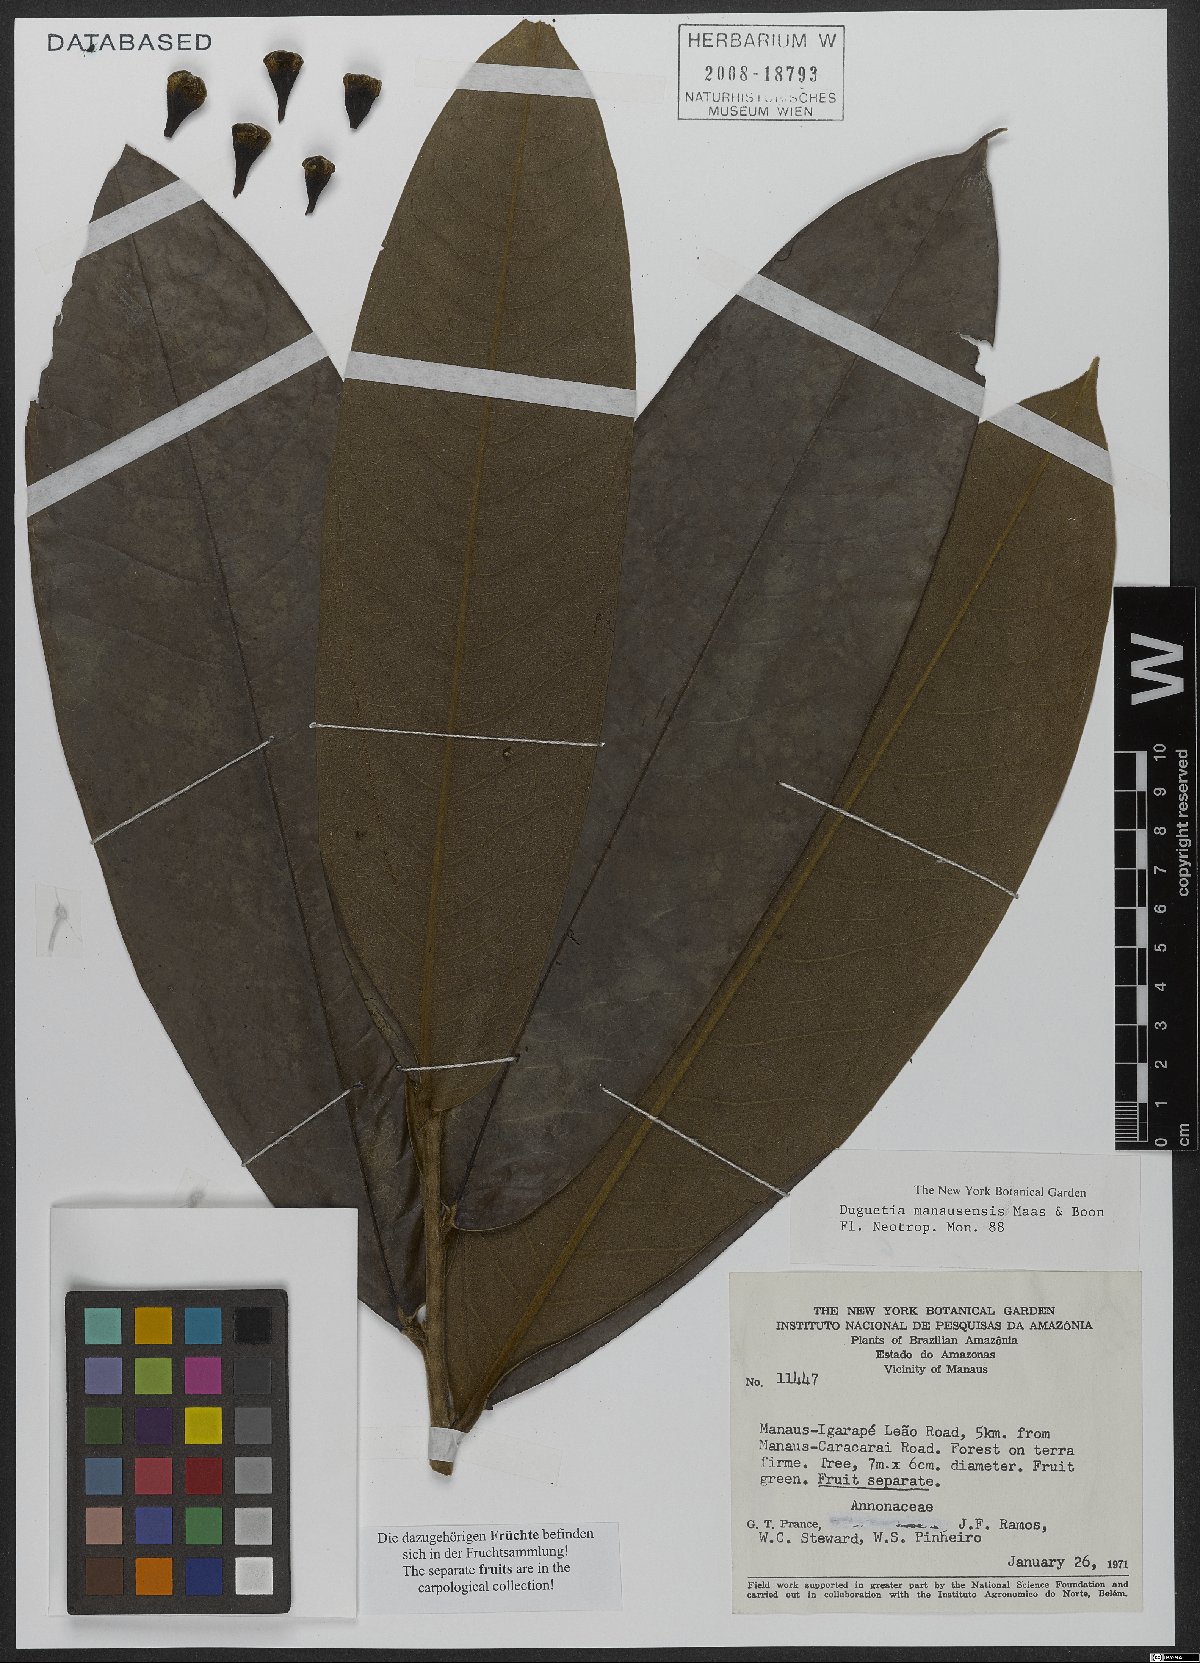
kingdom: Plantae
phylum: Tracheophyta
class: Magnoliopsida
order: Magnoliales
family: Annonaceae
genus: Duguetia
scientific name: Duguetia manausensis
